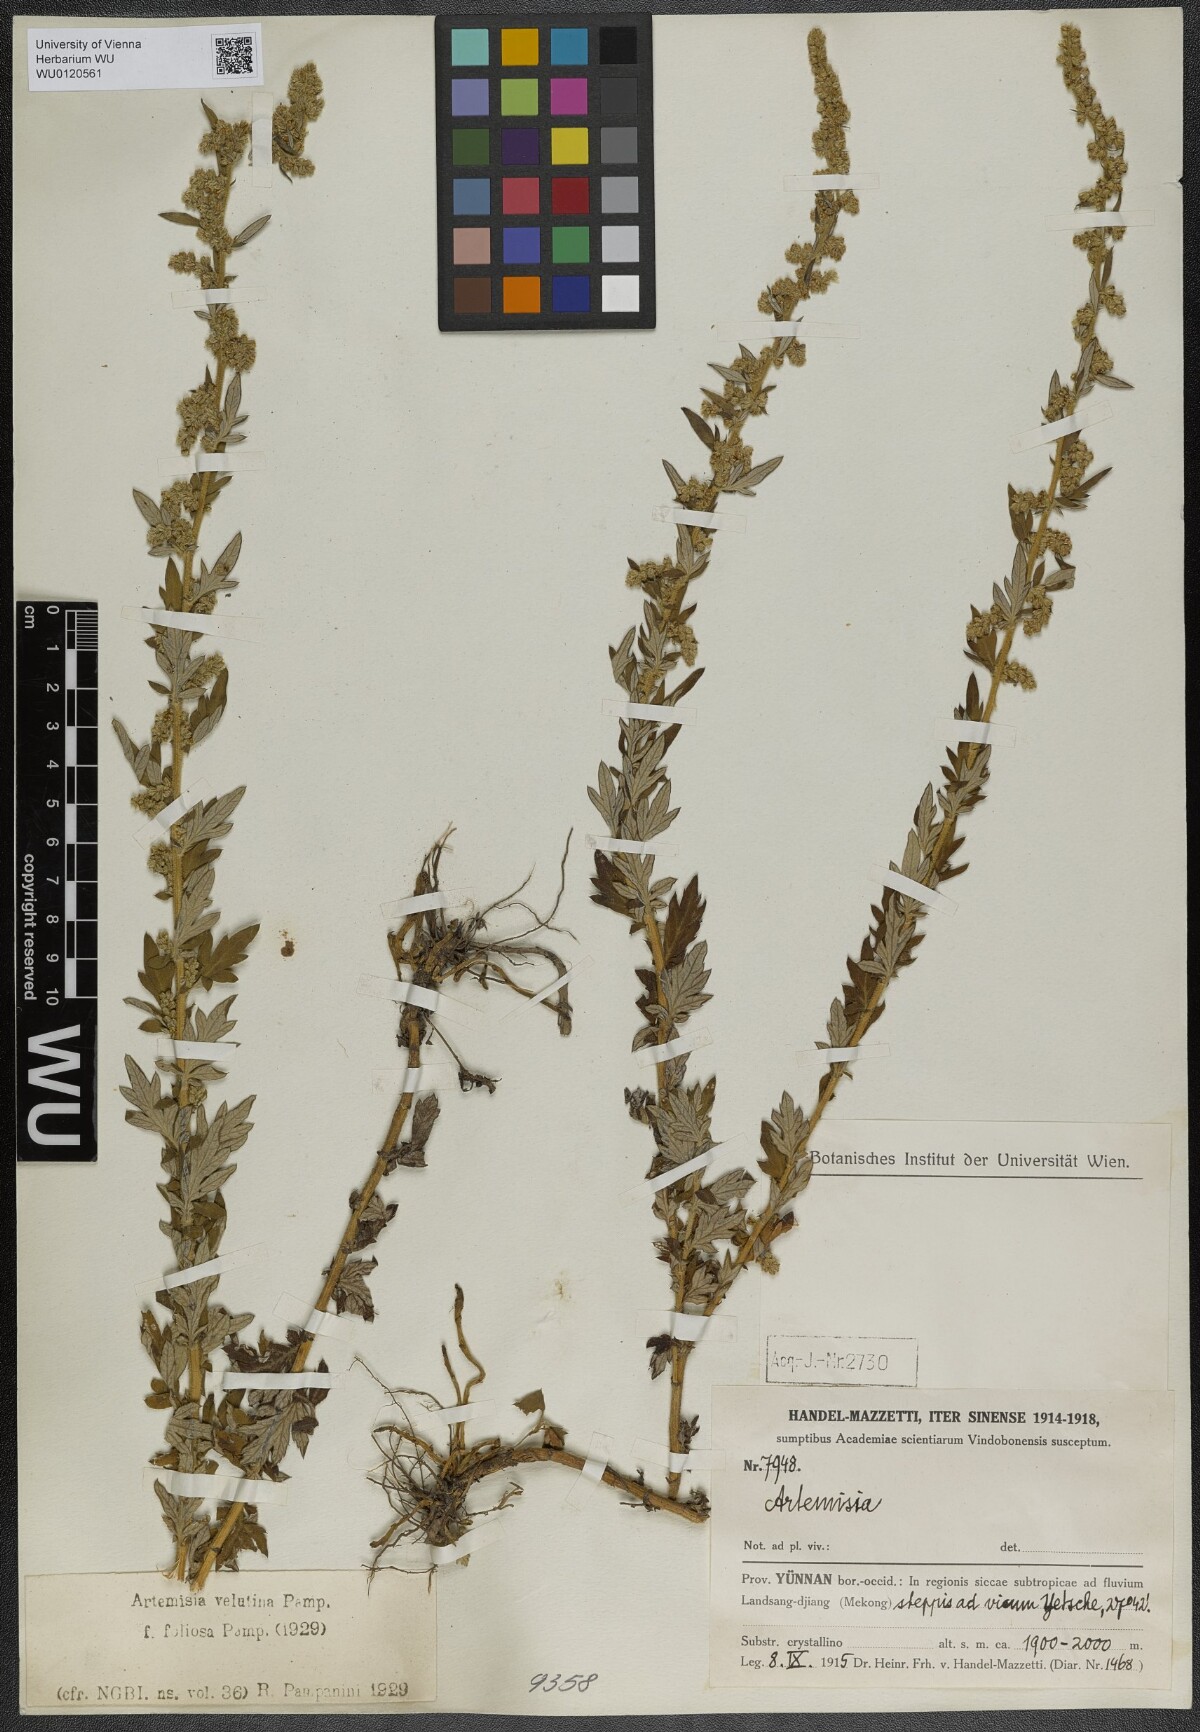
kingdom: Plantae
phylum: Tracheophyta
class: Magnoliopsida
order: Asterales
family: Asteraceae
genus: Artemisia
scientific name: Artemisia velutina
